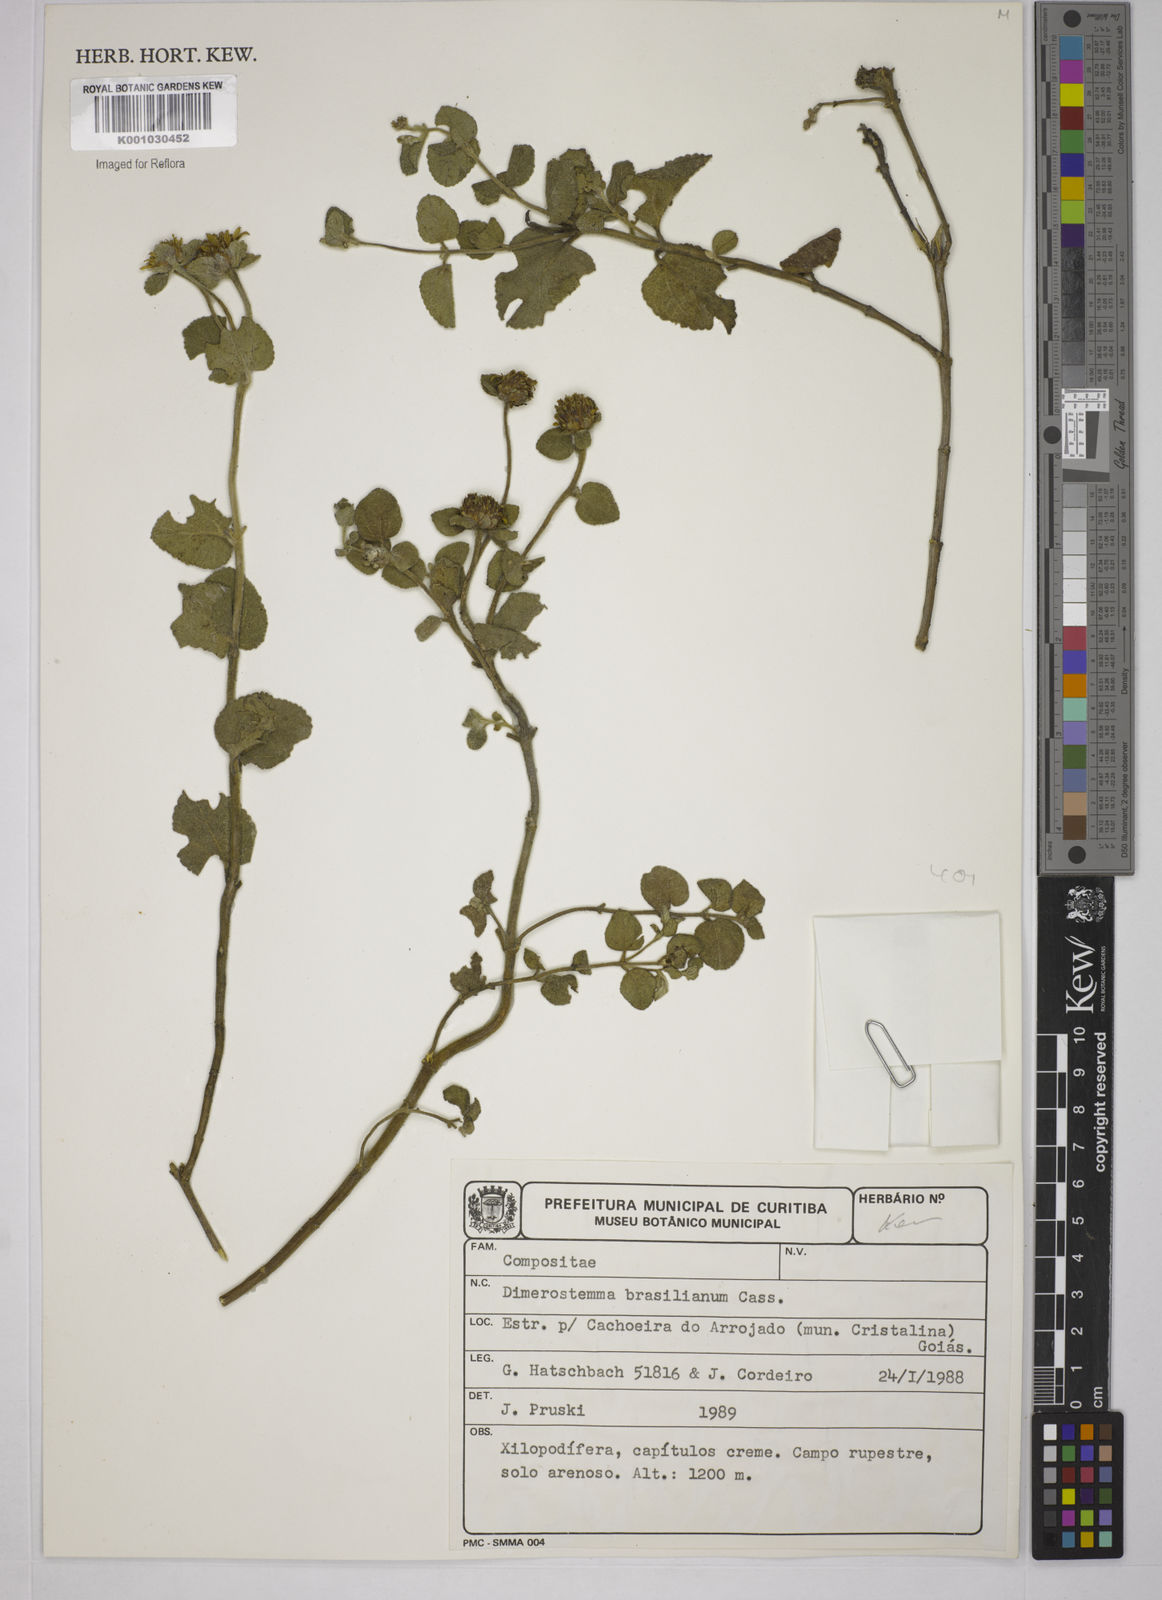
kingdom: Plantae
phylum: Tracheophyta
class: Magnoliopsida
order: Asterales
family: Asteraceae
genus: Dimerostemma
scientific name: Dimerostemma brasilianum
